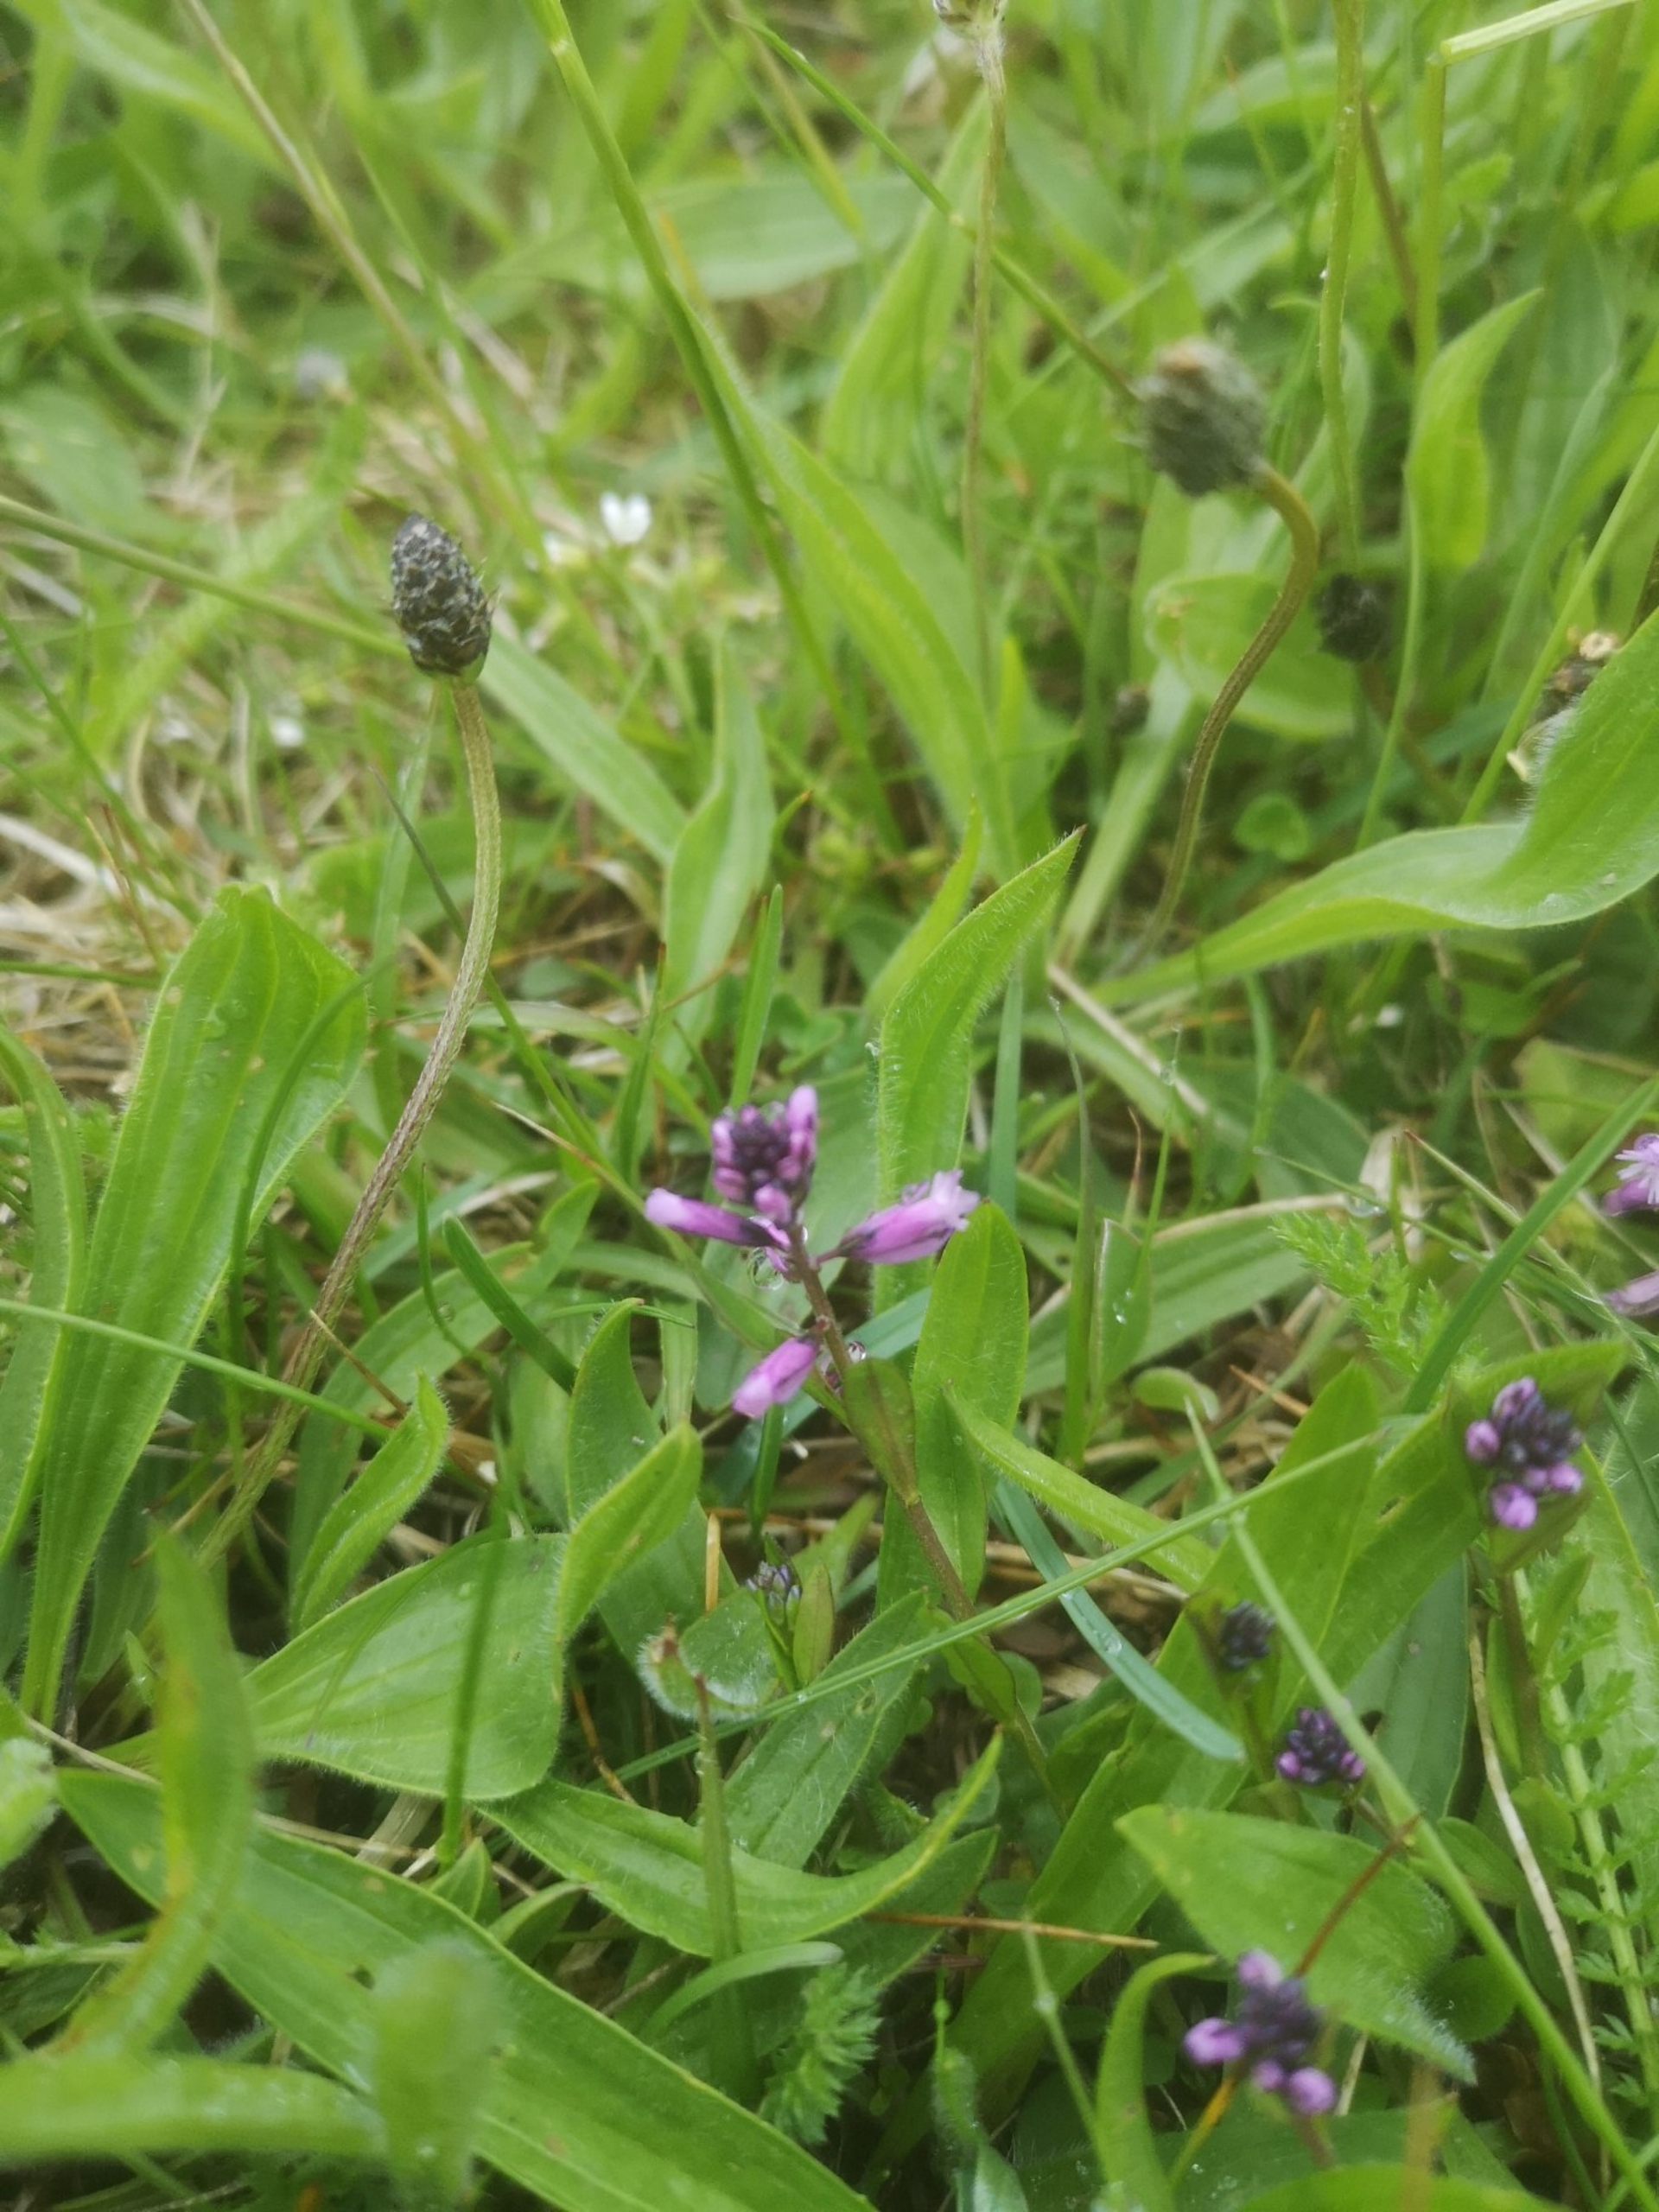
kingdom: Plantae
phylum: Tracheophyta
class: Magnoliopsida
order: Fabales
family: Polygalaceae
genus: Polygala
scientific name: Polygala vulgaris
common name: Almindelig mælkeurt
